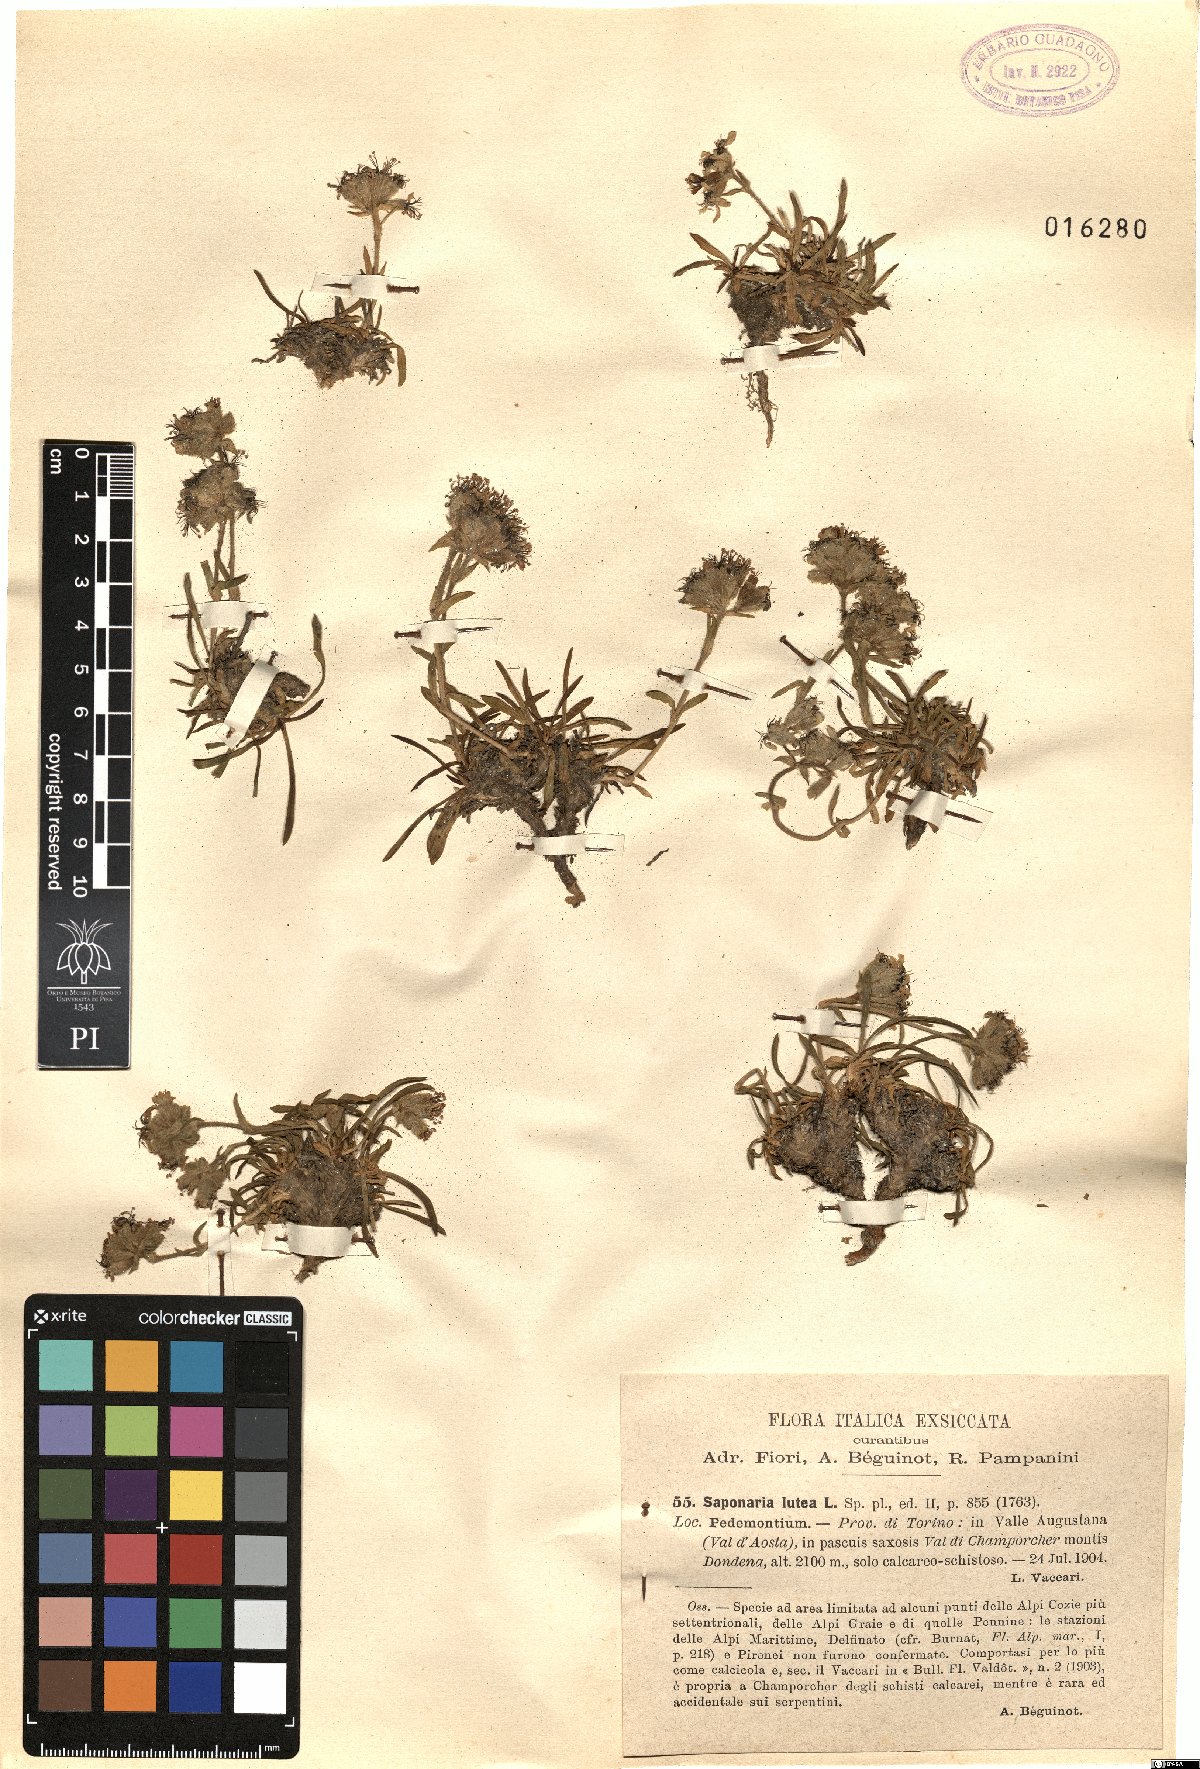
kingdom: Plantae
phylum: Tracheophyta
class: Magnoliopsida
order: Caryophyllales
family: Caryophyllaceae
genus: Saponaria
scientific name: Saponaria lutea
